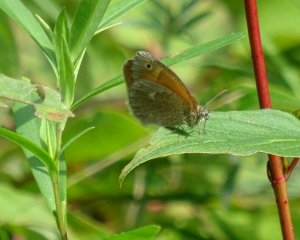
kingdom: Animalia
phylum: Arthropoda
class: Insecta
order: Lepidoptera
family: Nymphalidae
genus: Coenonympha
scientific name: Coenonympha tullia
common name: Large Heath
